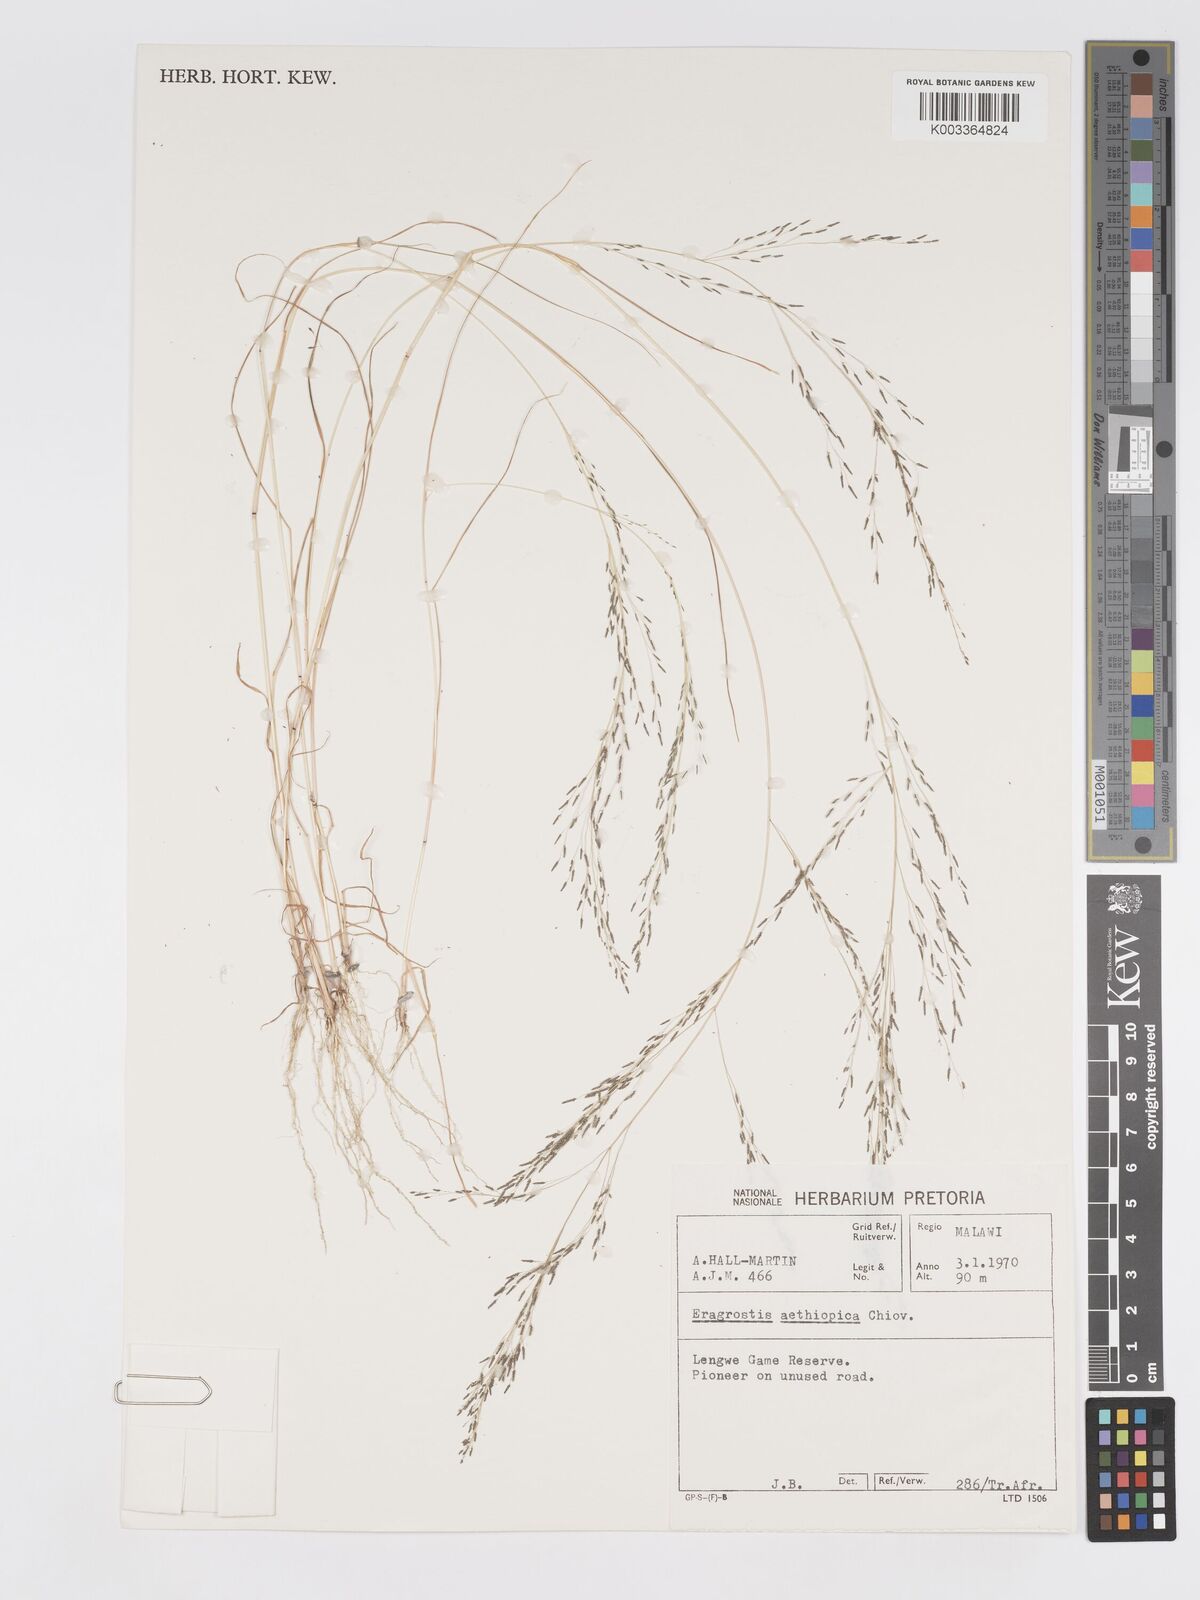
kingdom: Plantae
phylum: Tracheophyta
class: Liliopsida
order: Poales
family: Poaceae
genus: Eragrostis
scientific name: Eragrostis aethiopica
